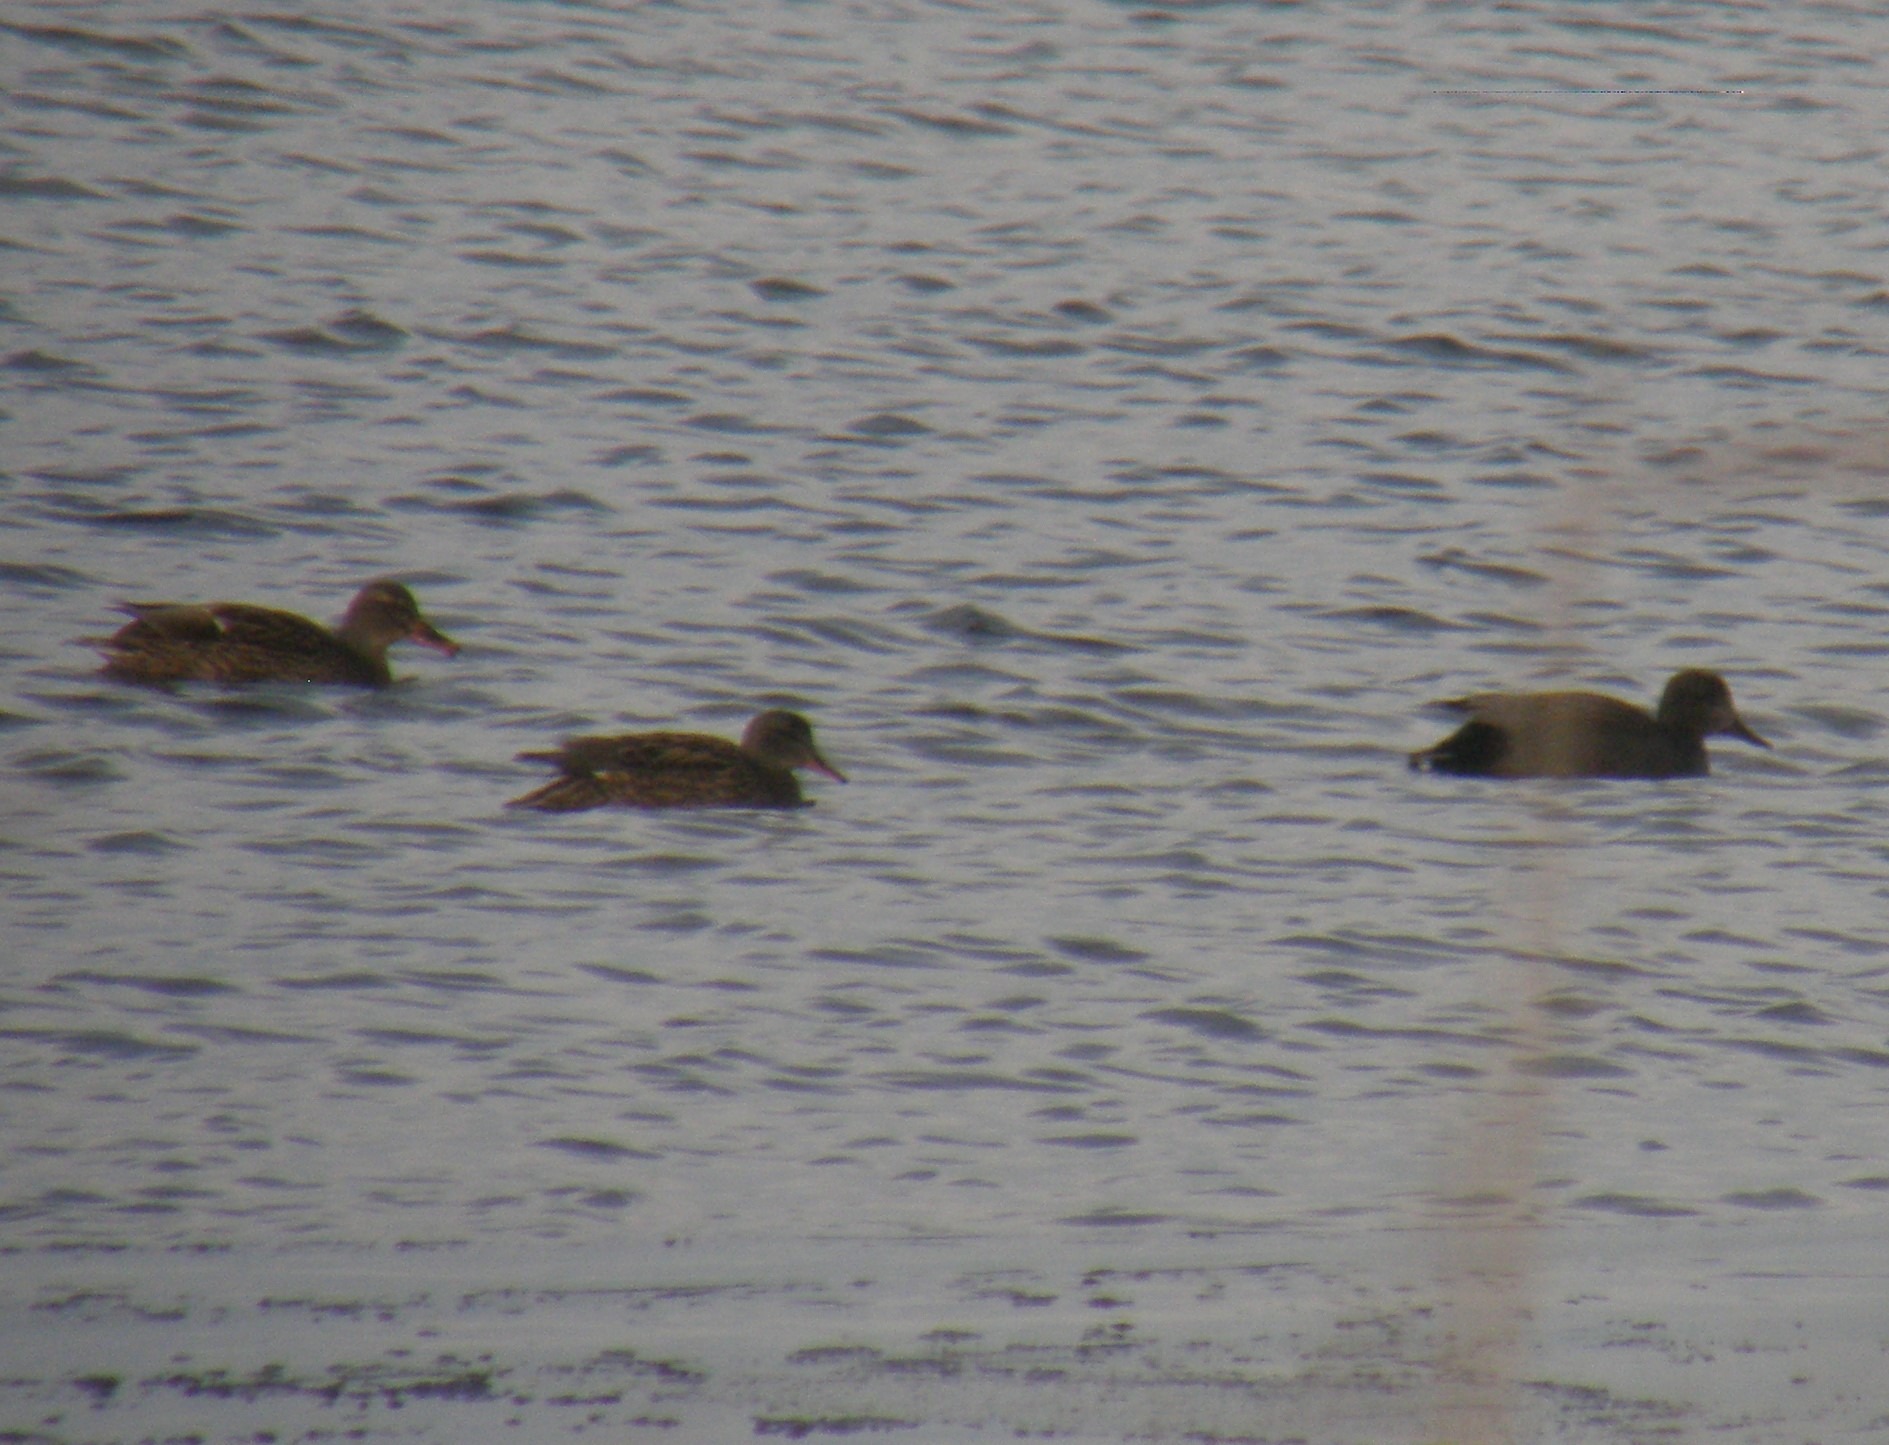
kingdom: Animalia
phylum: Chordata
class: Aves
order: Anseriformes
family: Anatidae
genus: Mareca
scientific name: Mareca strepera
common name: Knarand
